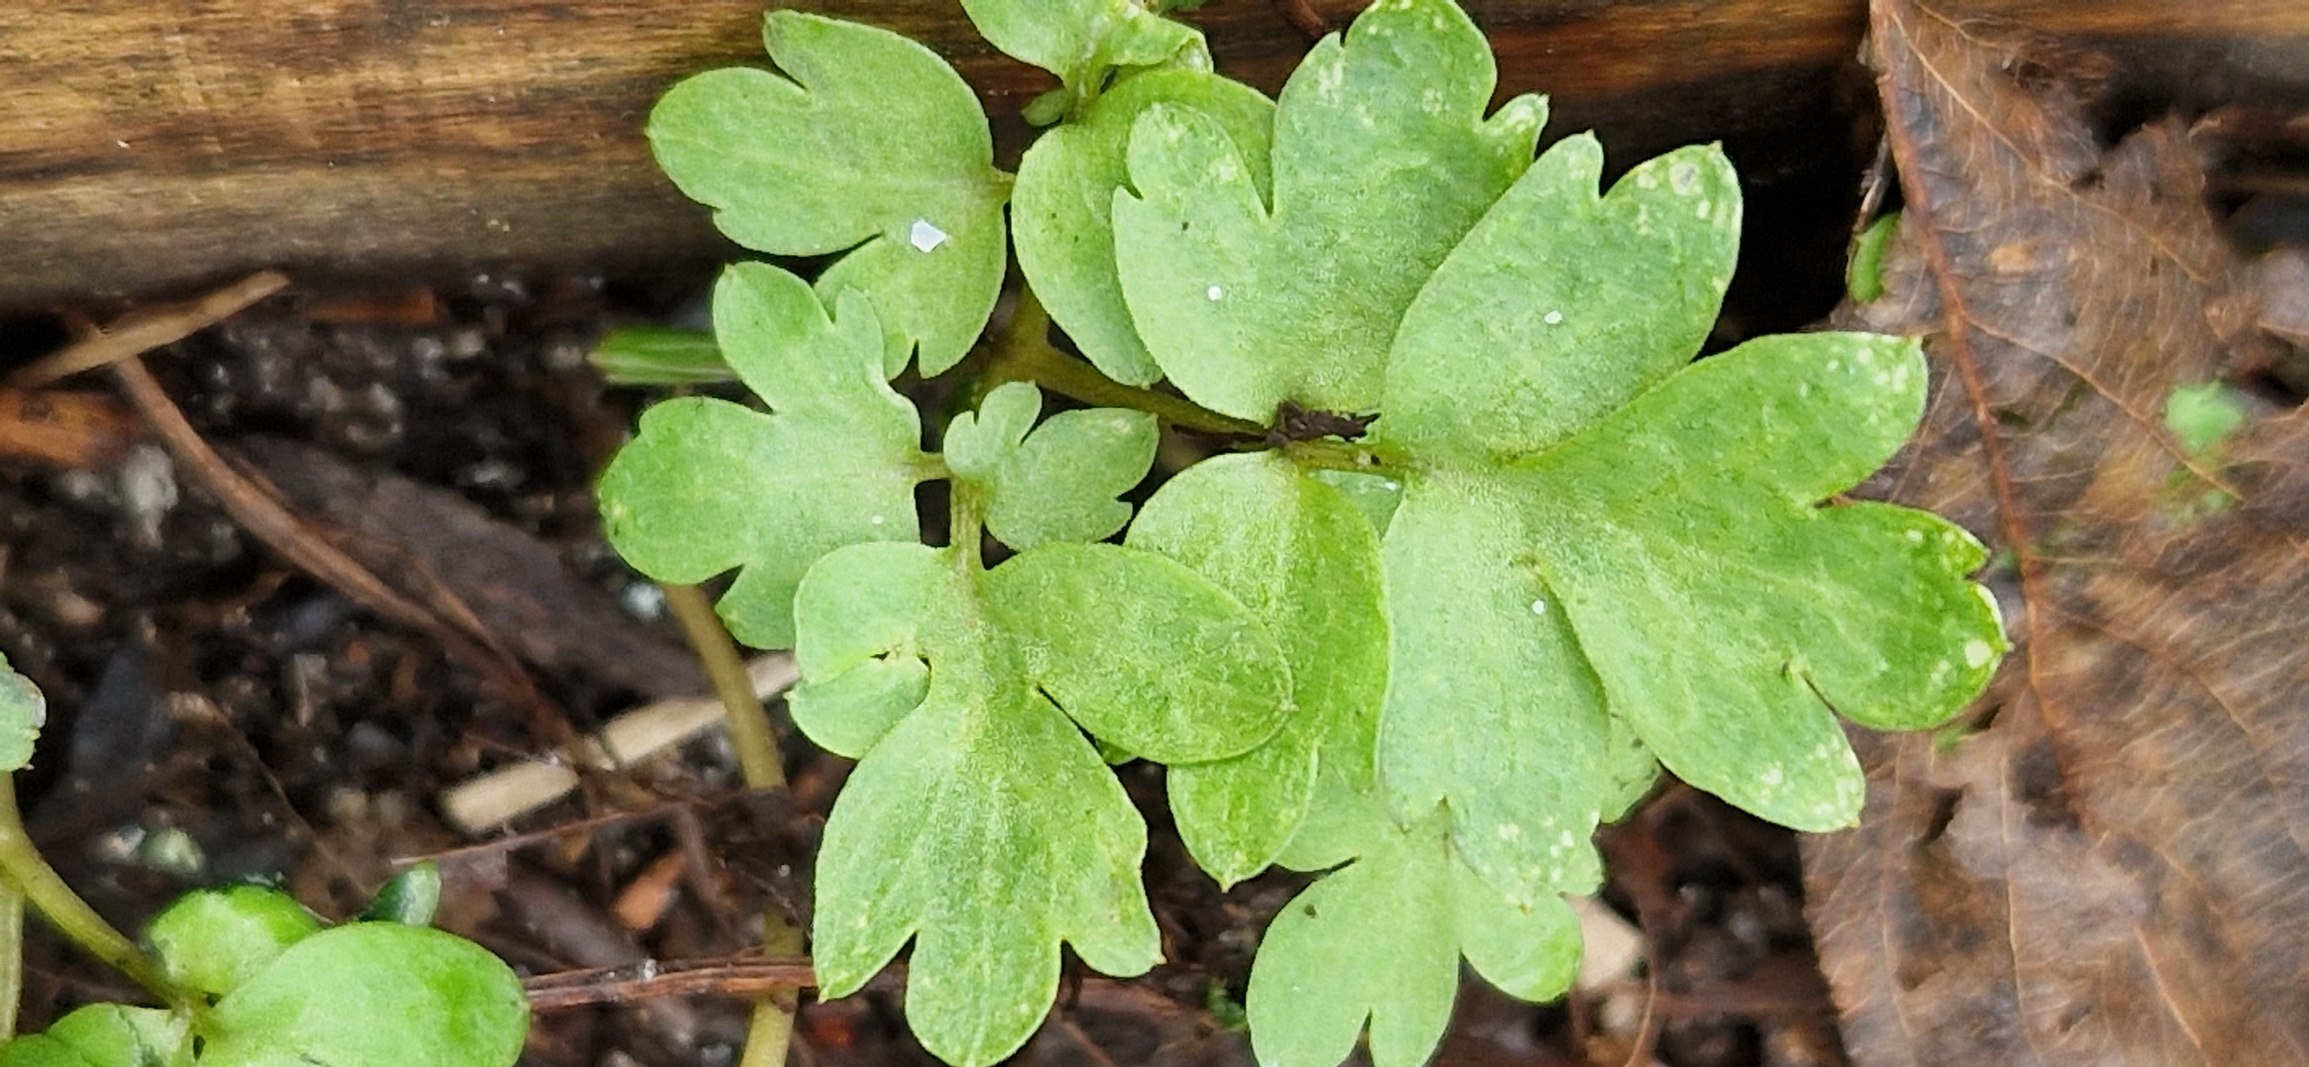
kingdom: Plantae
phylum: Tracheophyta
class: Magnoliopsida
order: Dipsacales
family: Viburnaceae
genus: Adoxa
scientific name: Adoxa moschatellina
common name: Desmerurt
